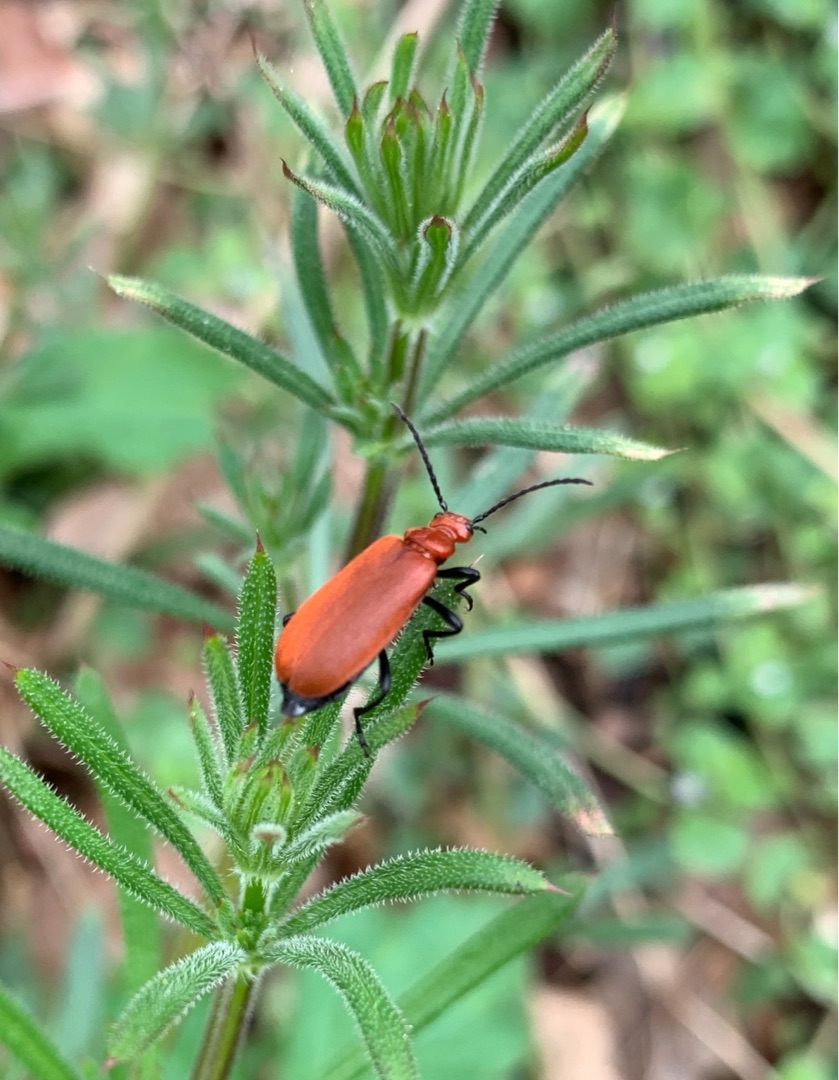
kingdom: Animalia
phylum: Arthropoda
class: Insecta
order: Coleoptera
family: Pyrochroidae
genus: Pyrochroa
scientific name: Pyrochroa serraticornis
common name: Rødhovedet kardinalbille
